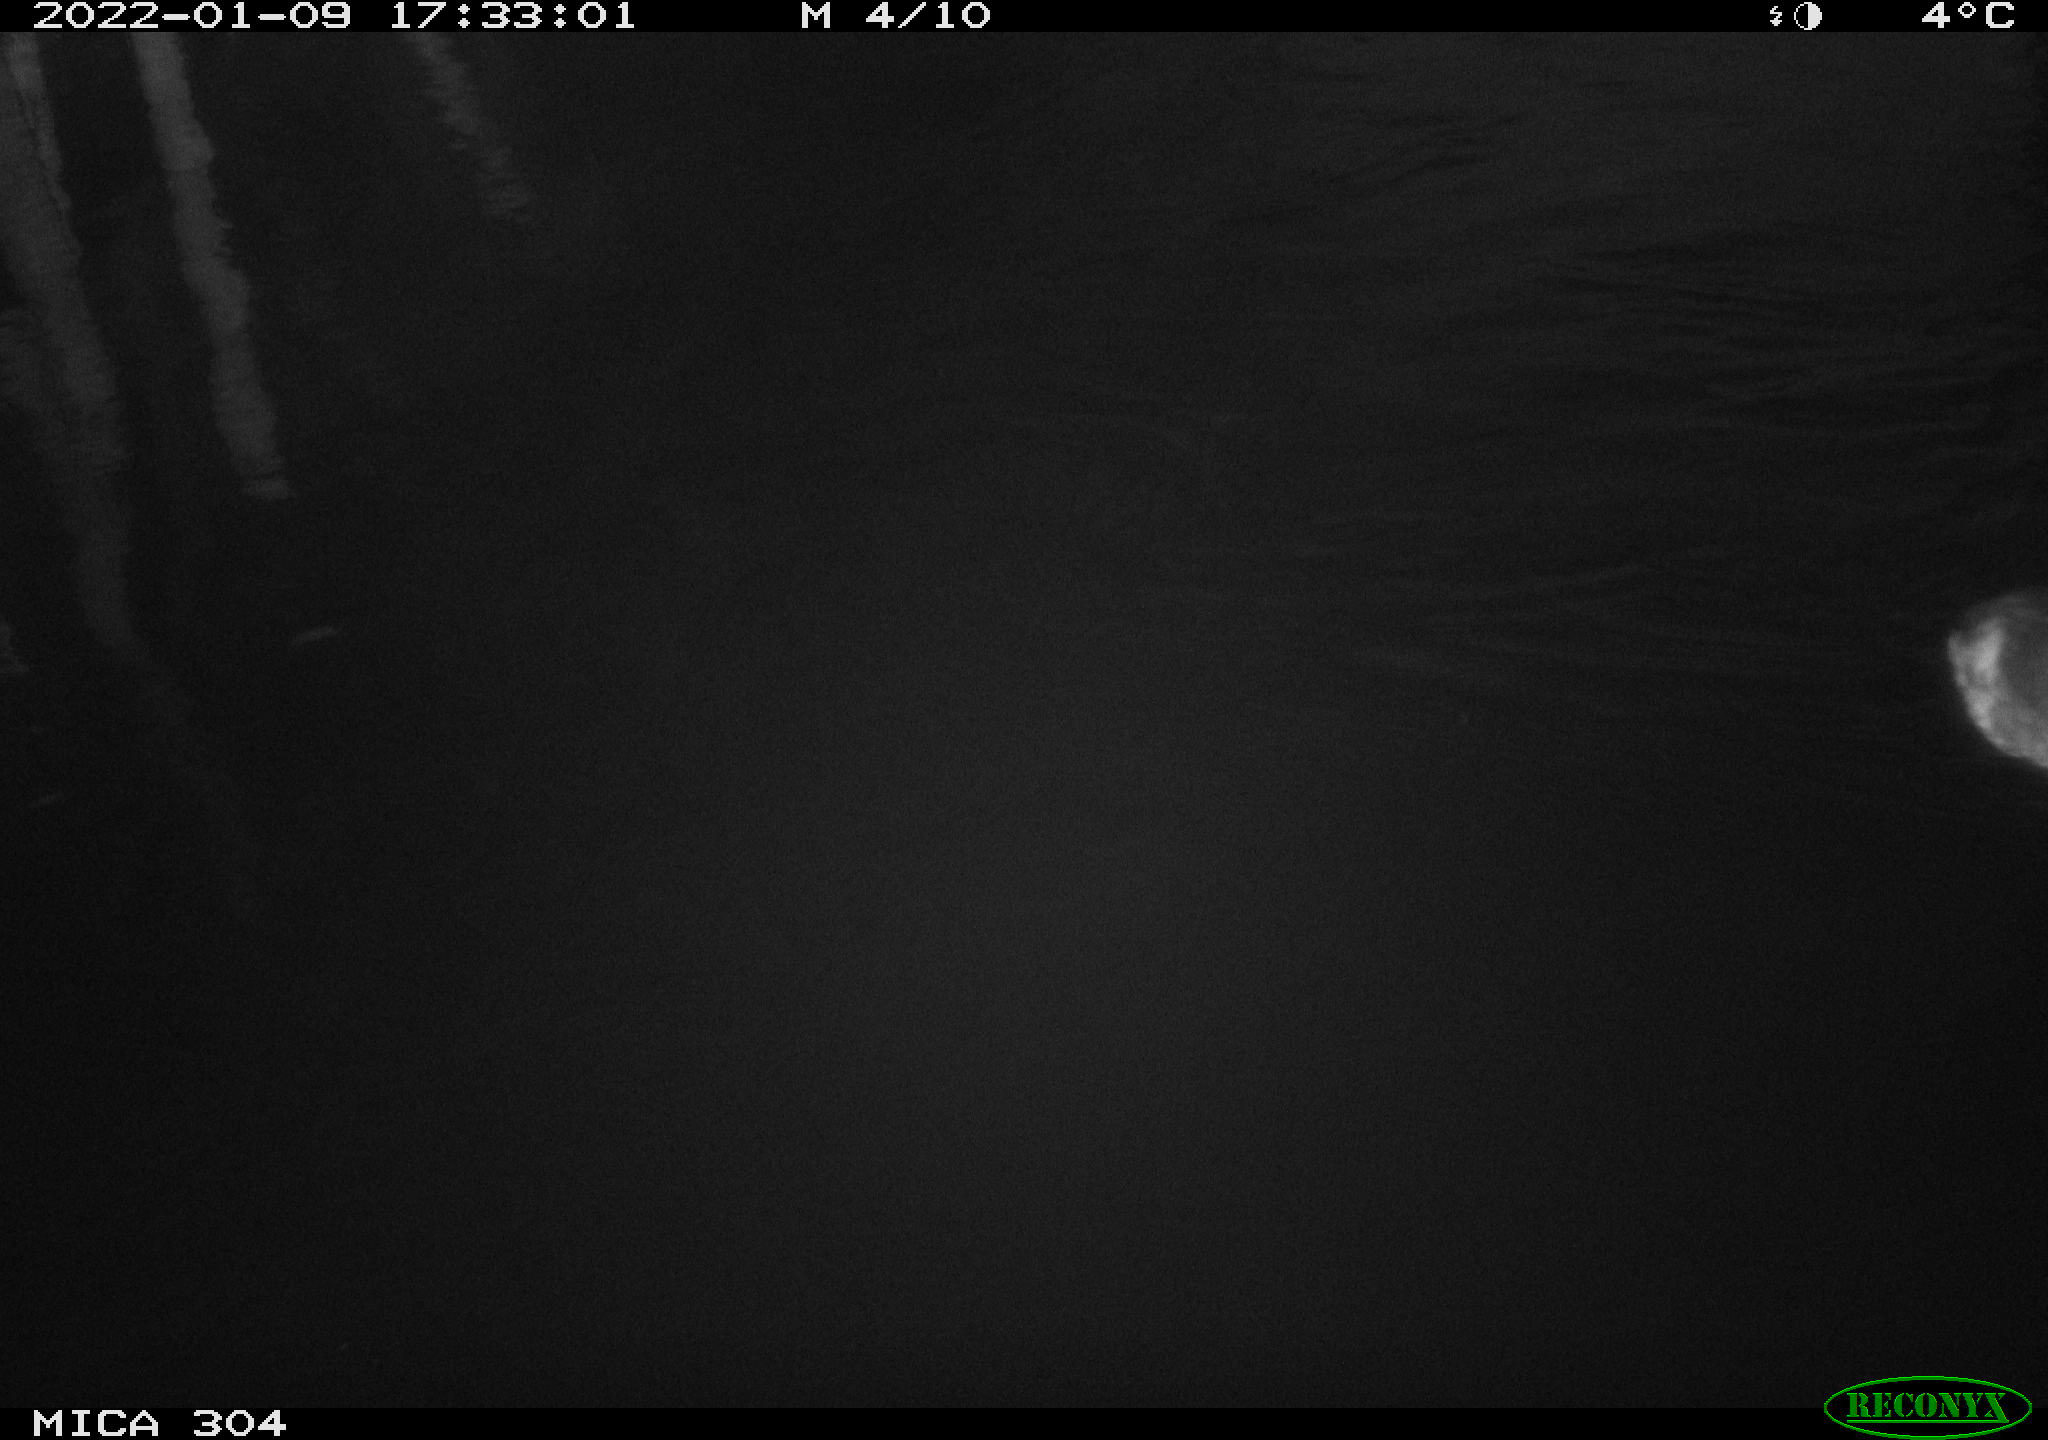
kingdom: Animalia
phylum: Chordata
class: Aves
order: Anseriformes
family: Anatidae
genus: Anas
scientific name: Anas
